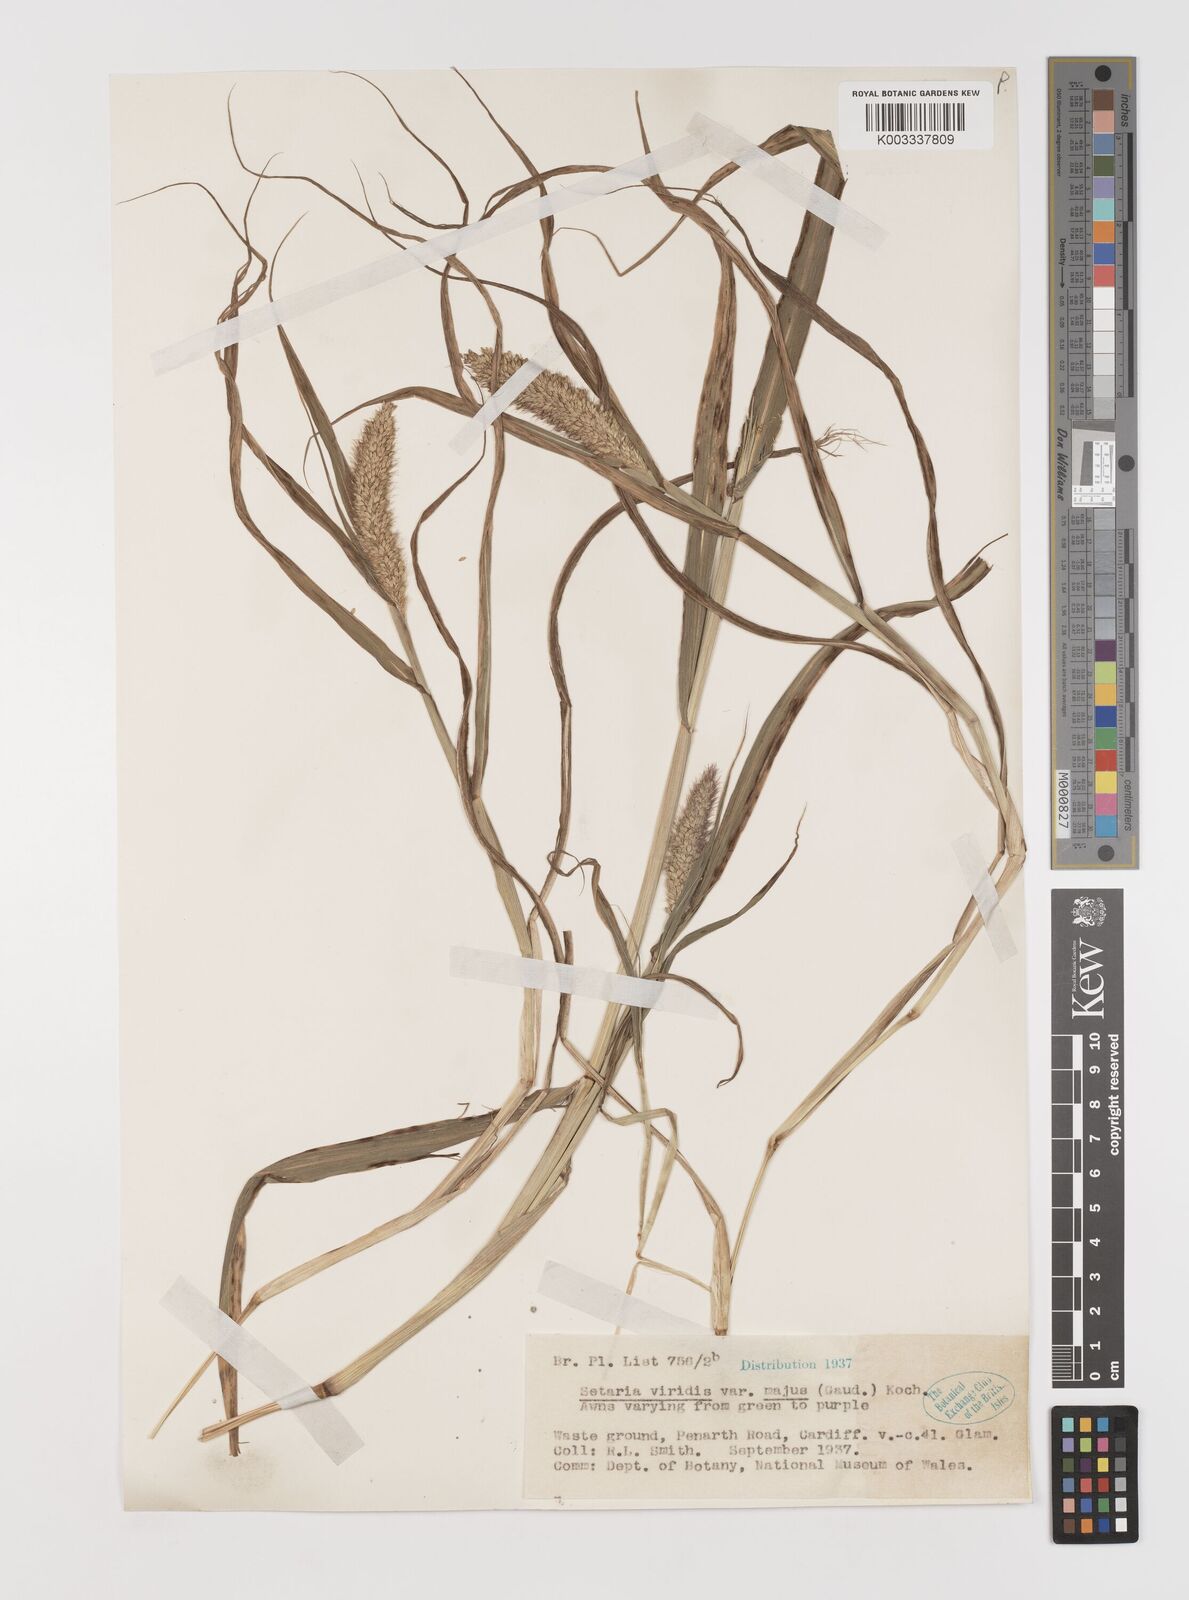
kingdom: Plantae
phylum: Tracheophyta
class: Liliopsida
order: Poales
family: Poaceae
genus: Setaria
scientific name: Setaria viridis
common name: Green bristlegrass
